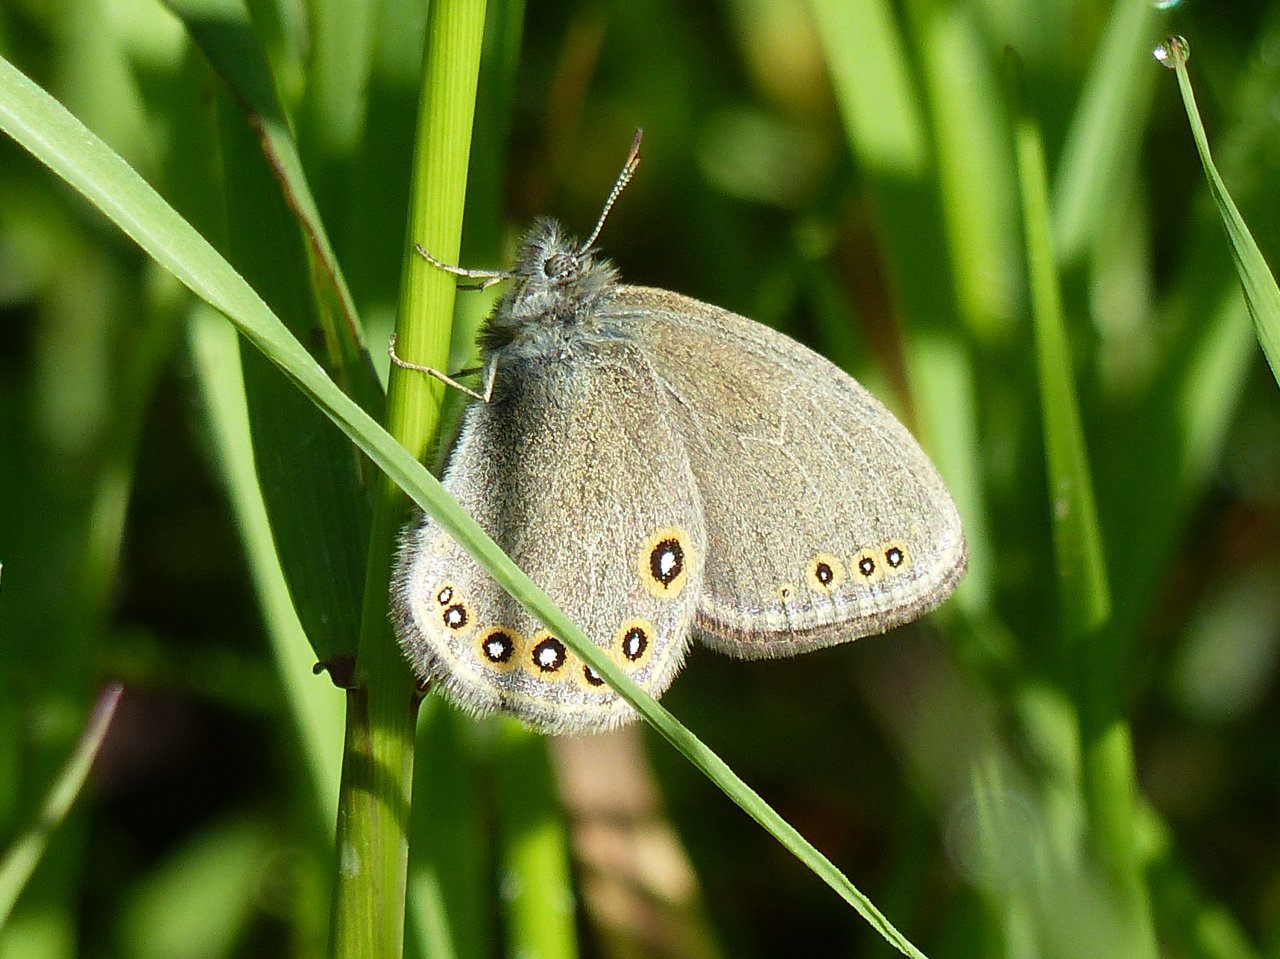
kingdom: Animalia
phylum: Arthropoda
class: Insecta
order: Lepidoptera
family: Nymphalidae
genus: Coenonympha
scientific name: Coenonympha haydeni
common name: Hayden's Ringlet
